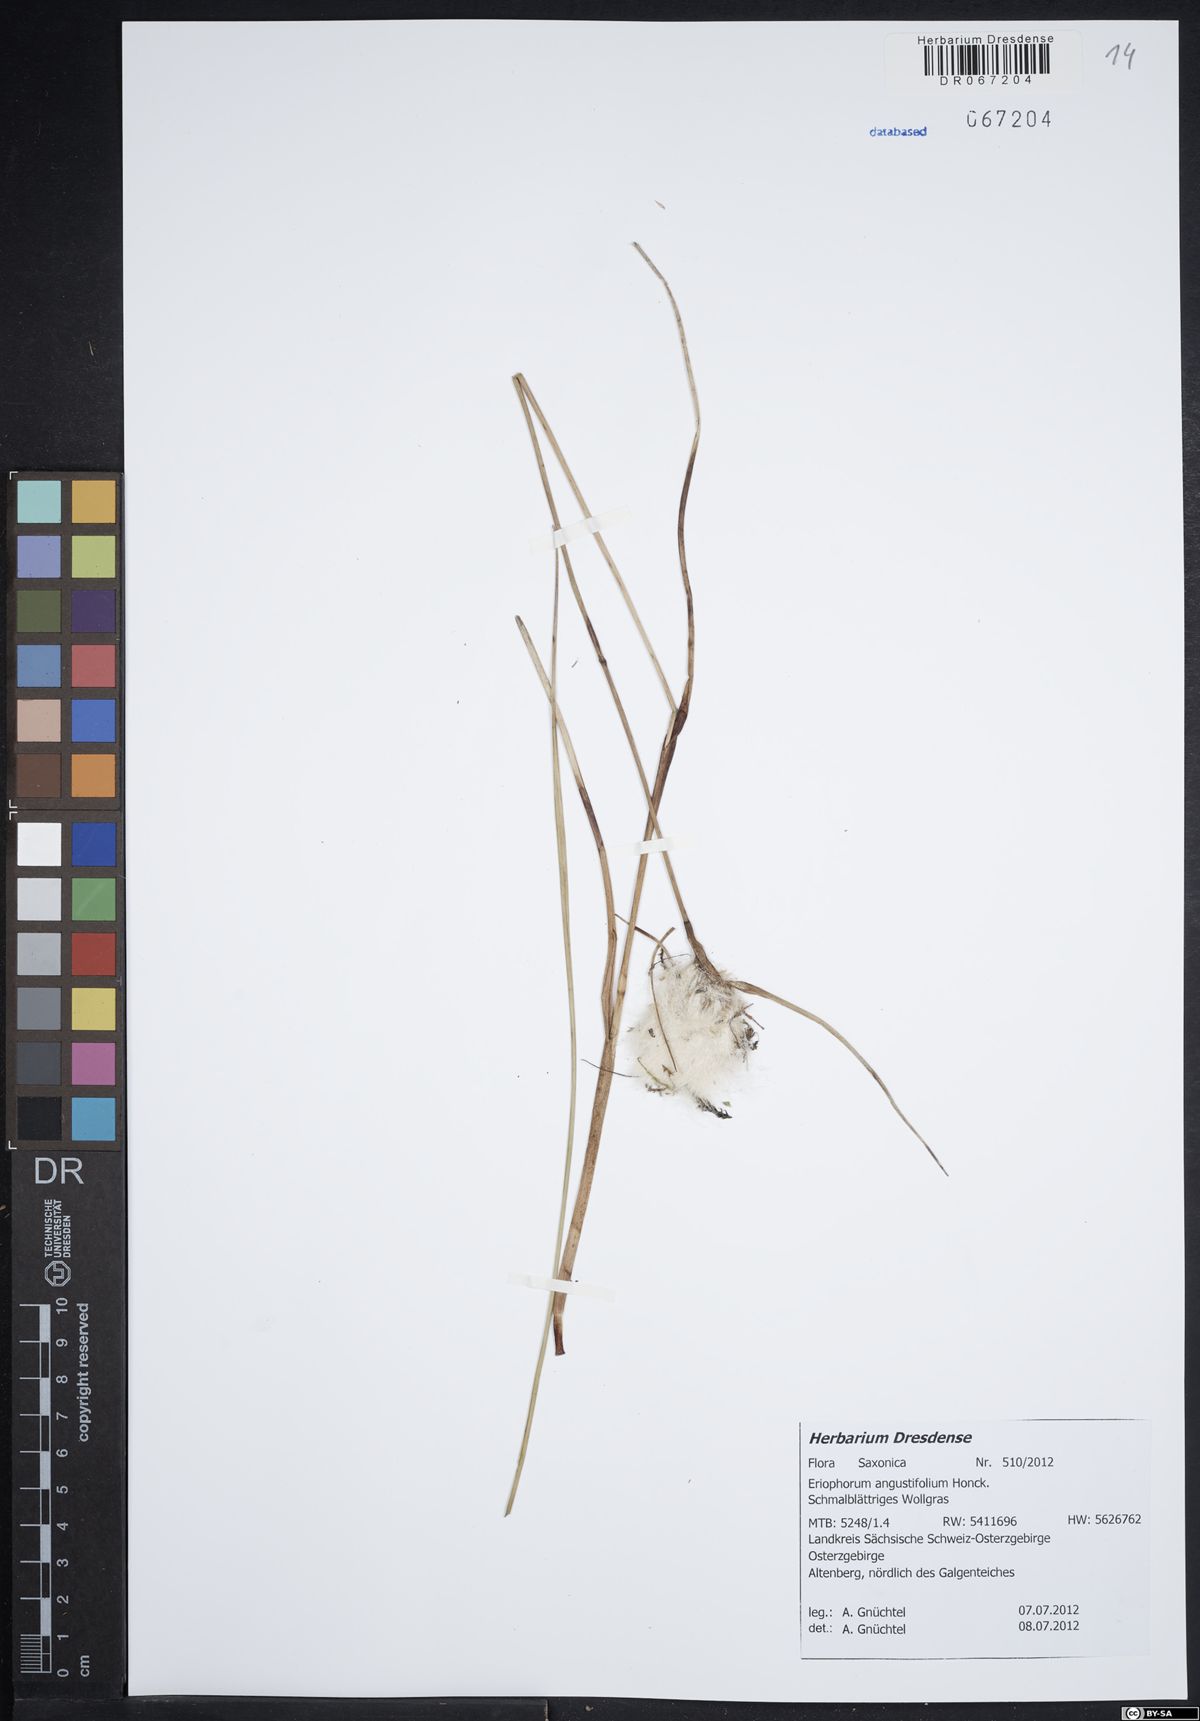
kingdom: Plantae
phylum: Tracheophyta
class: Liliopsida
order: Poales
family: Cyperaceae
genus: Eriophorum
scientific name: Eriophorum angustifolium
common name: Common cottongrass
